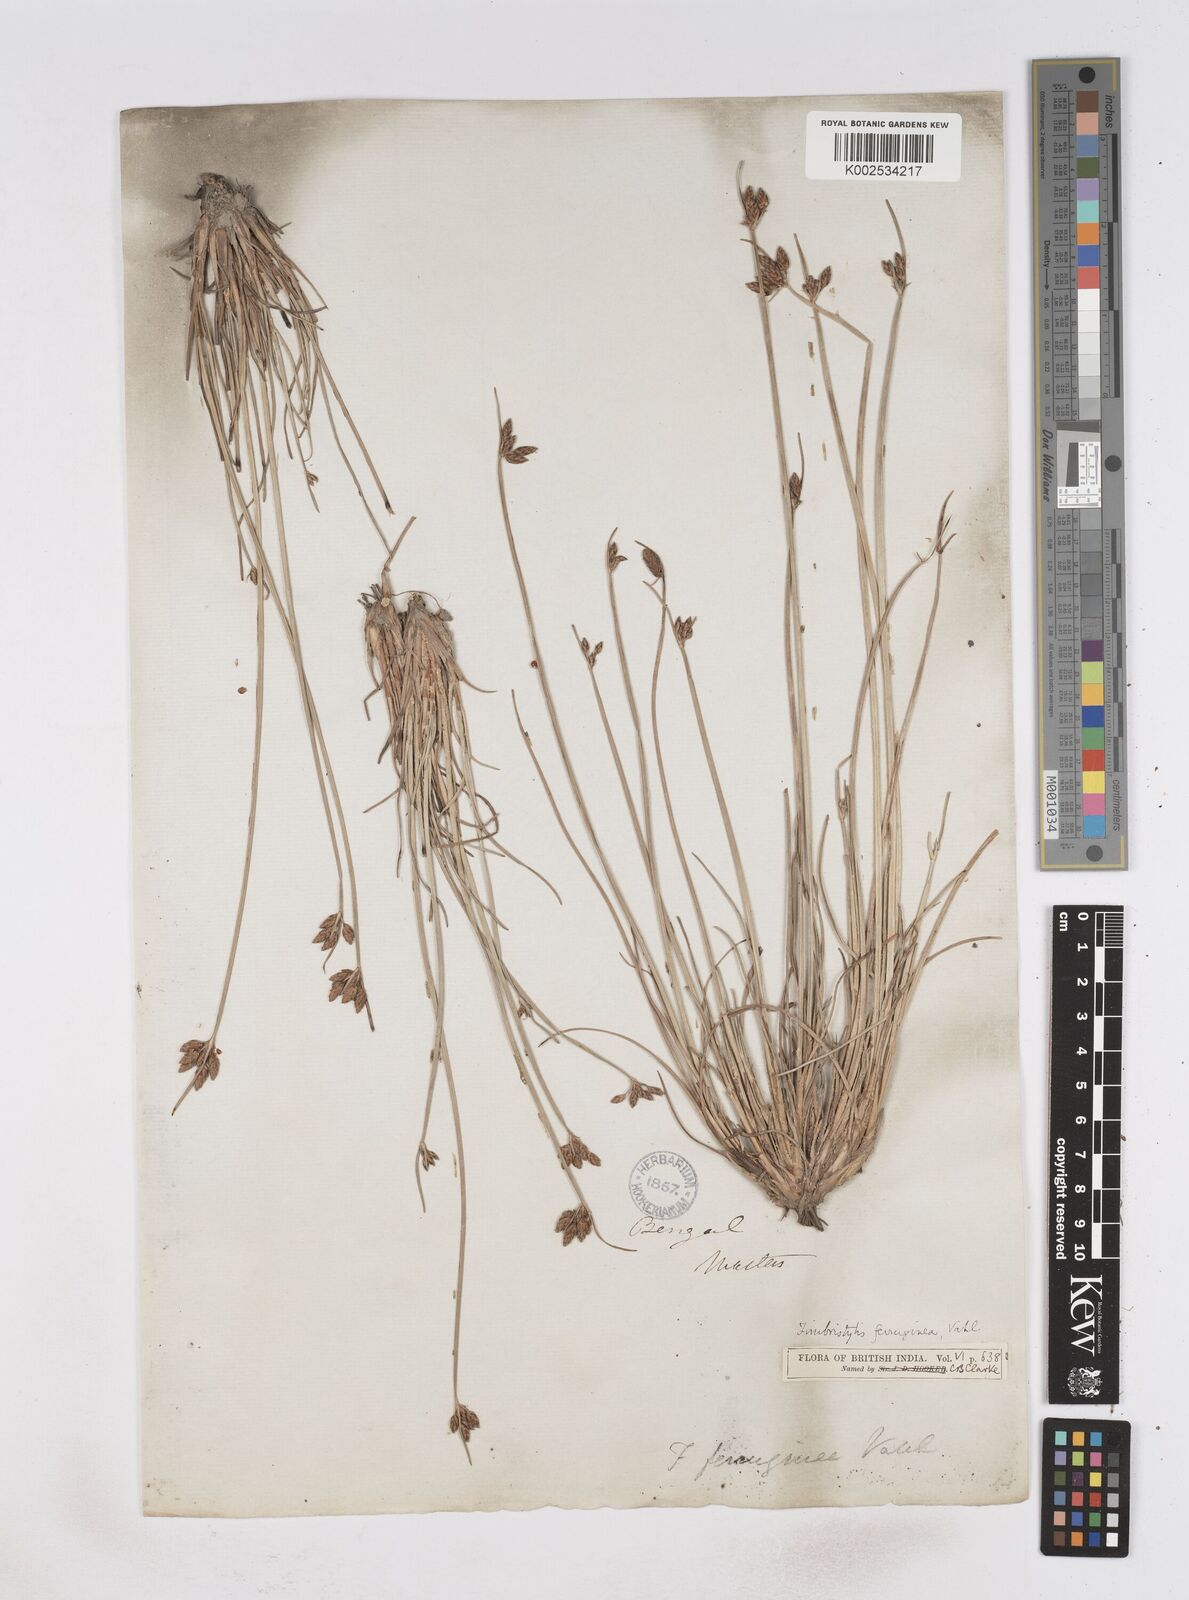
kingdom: Plantae
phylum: Tracheophyta
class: Liliopsida
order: Poales
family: Cyperaceae
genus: Fimbristylis
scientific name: Fimbristylis ferruginea
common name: West indian fimbry
